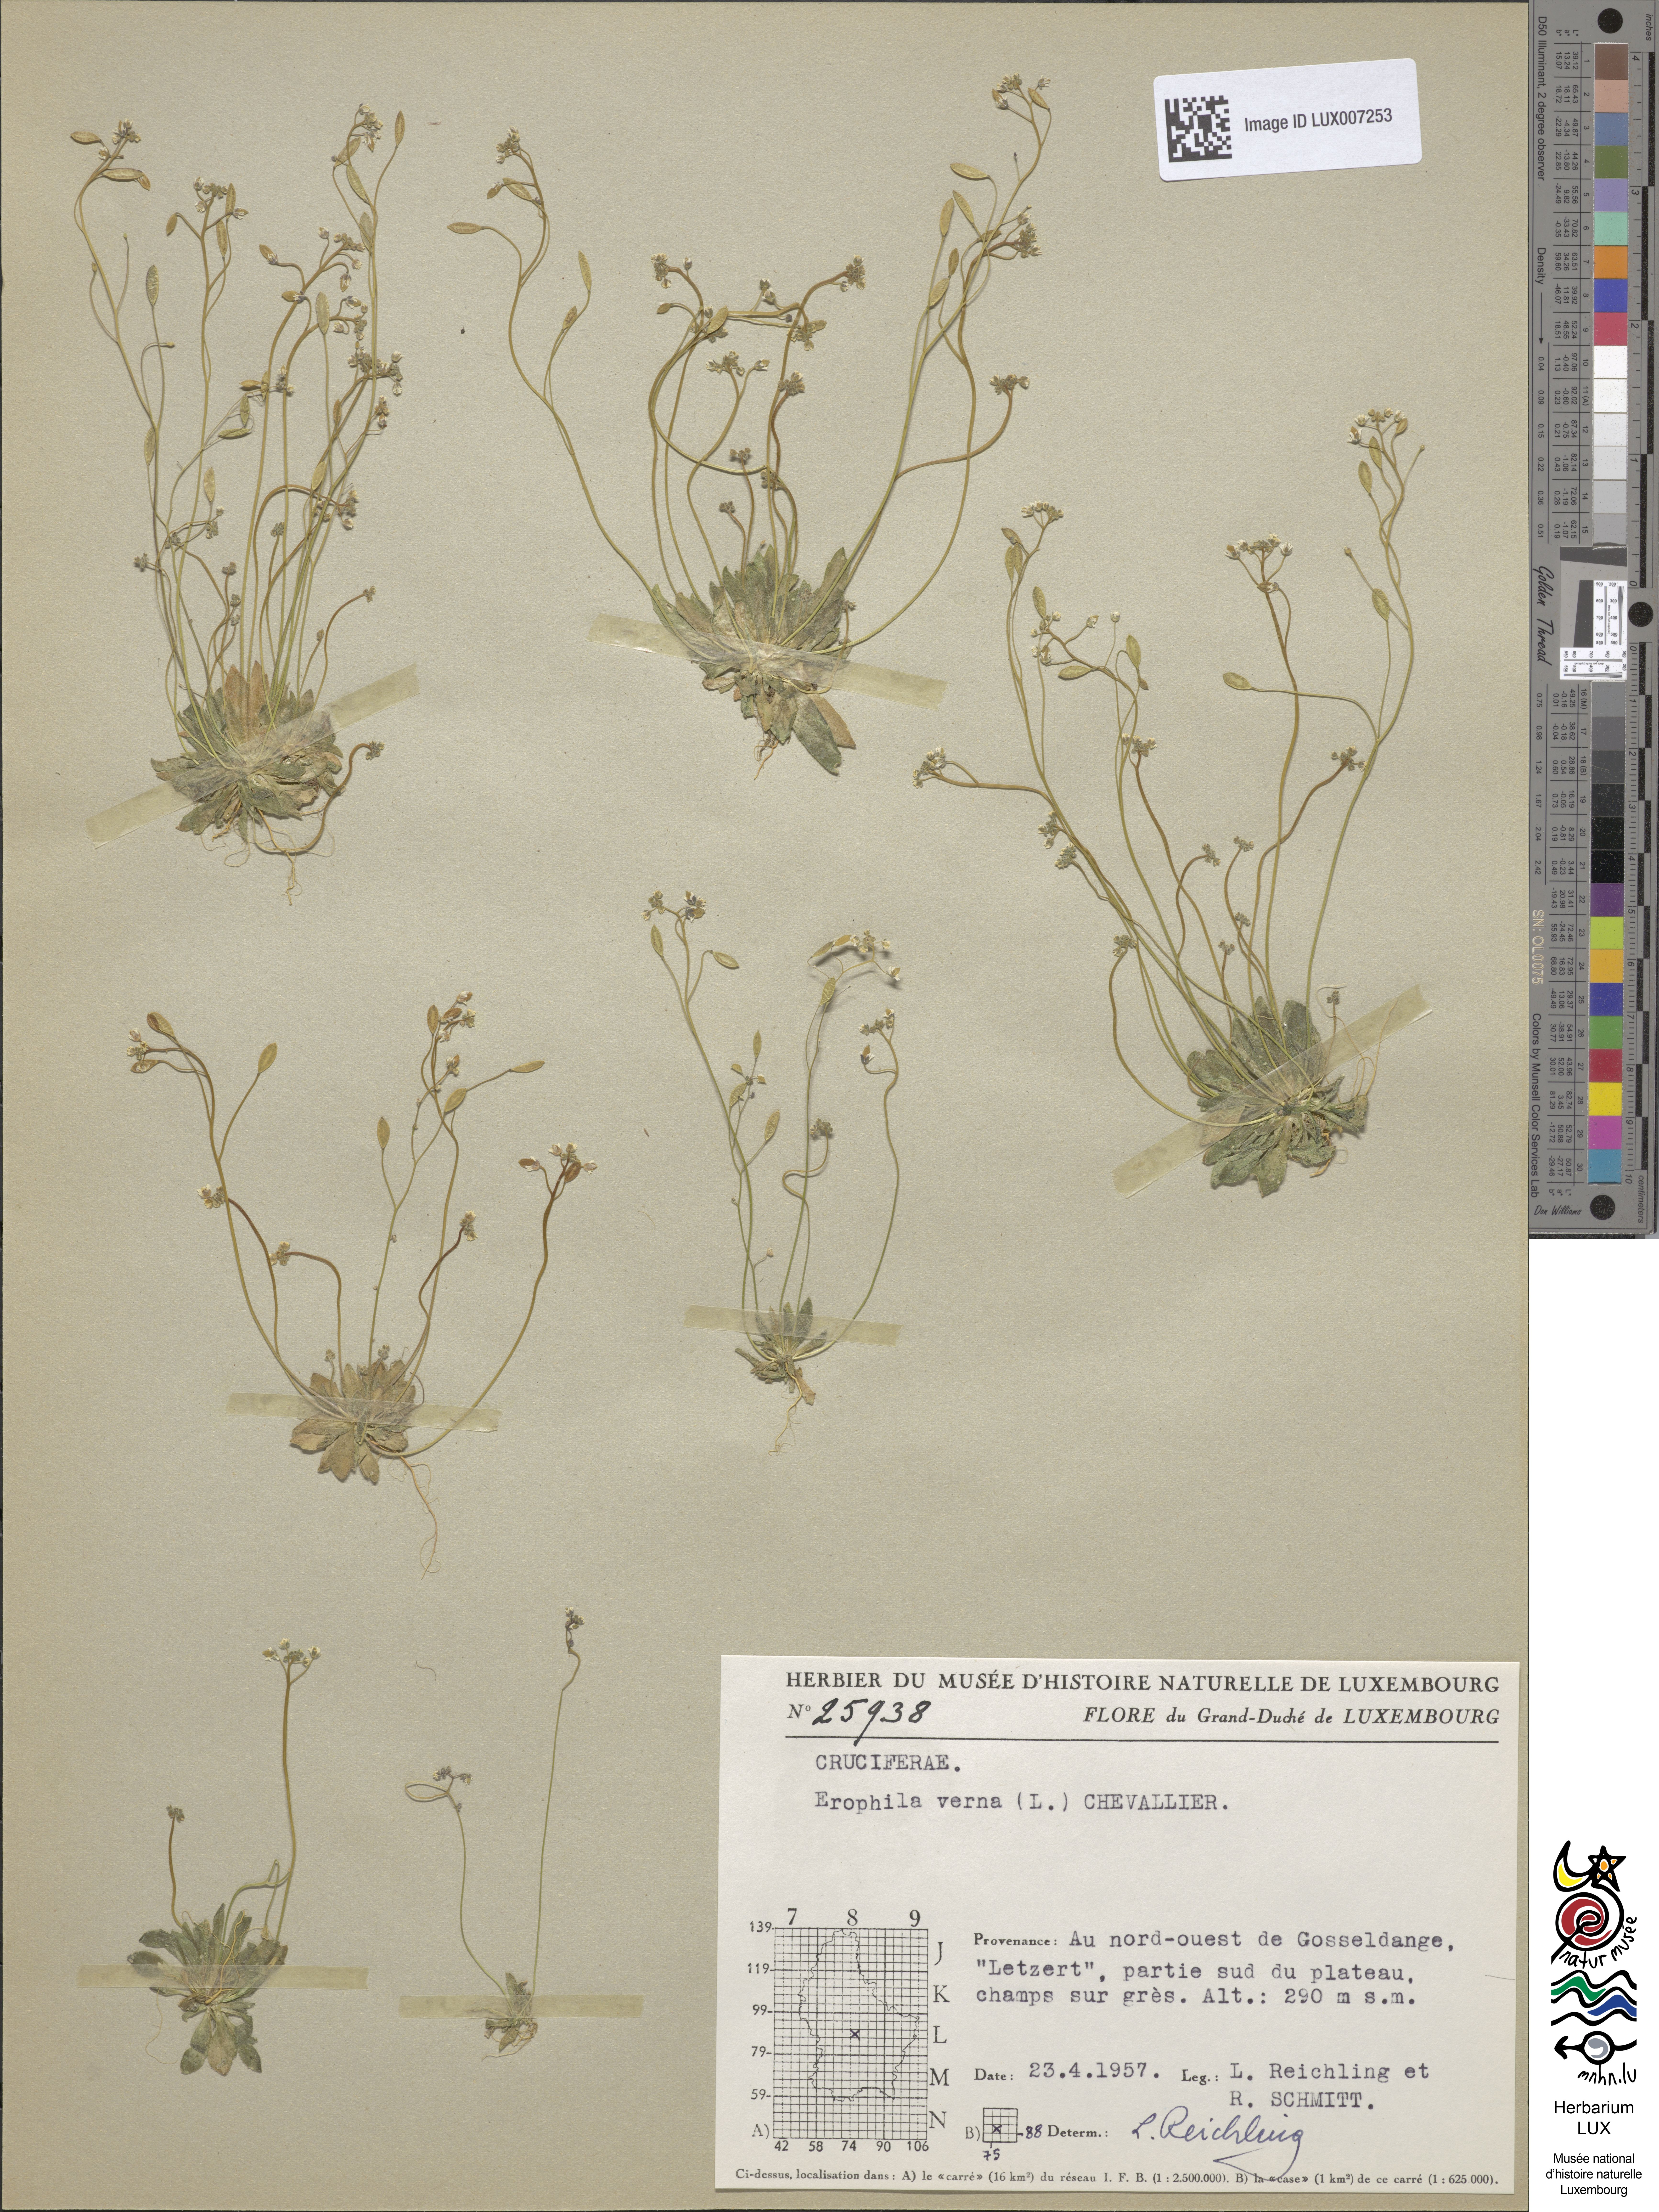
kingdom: Plantae
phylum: Tracheophyta
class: Magnoliopsida
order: Brassicales
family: Brassicaceae
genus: Draba
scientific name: Draba verna
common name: Spring draba
